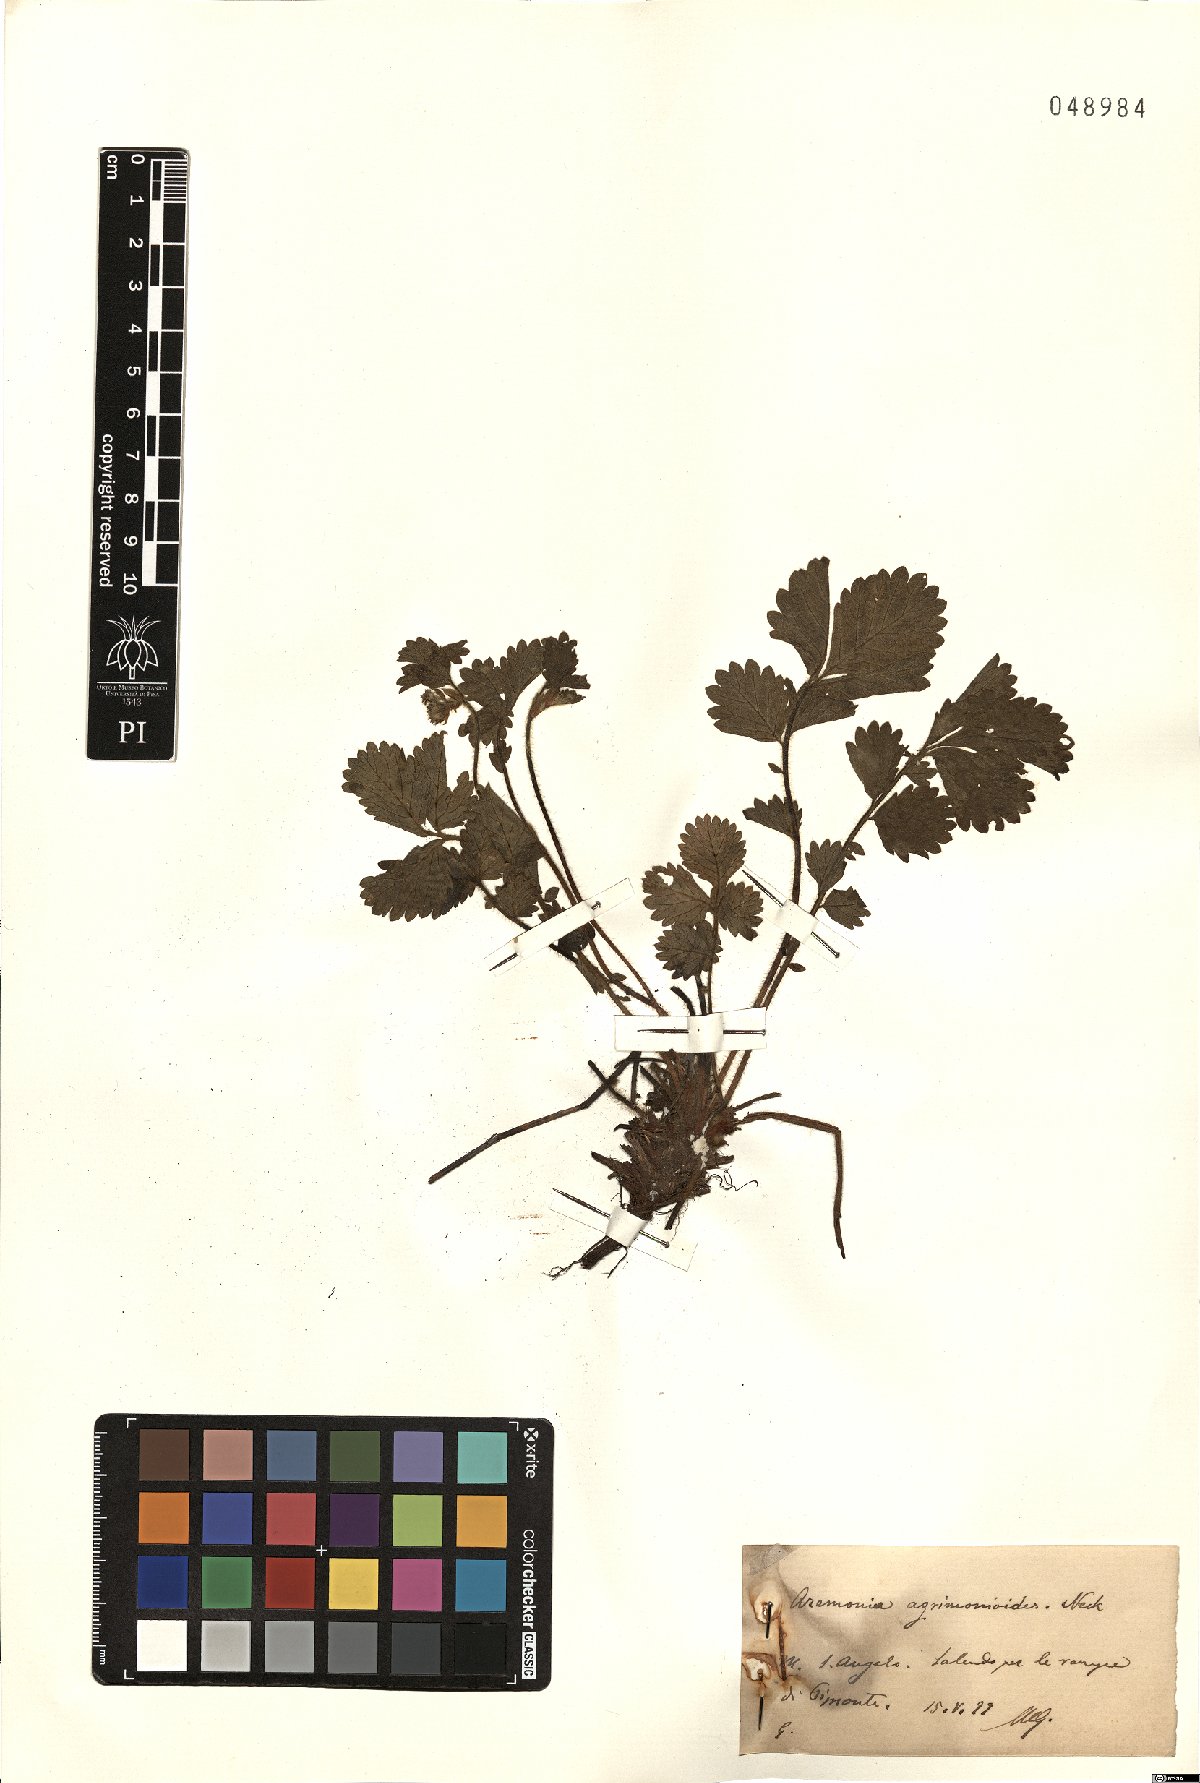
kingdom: Plantae
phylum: Tracheophyta
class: Magnoliopsida
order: Rosales
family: Rosaceae
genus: Aremonia
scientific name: Aremonia agrimonoides
